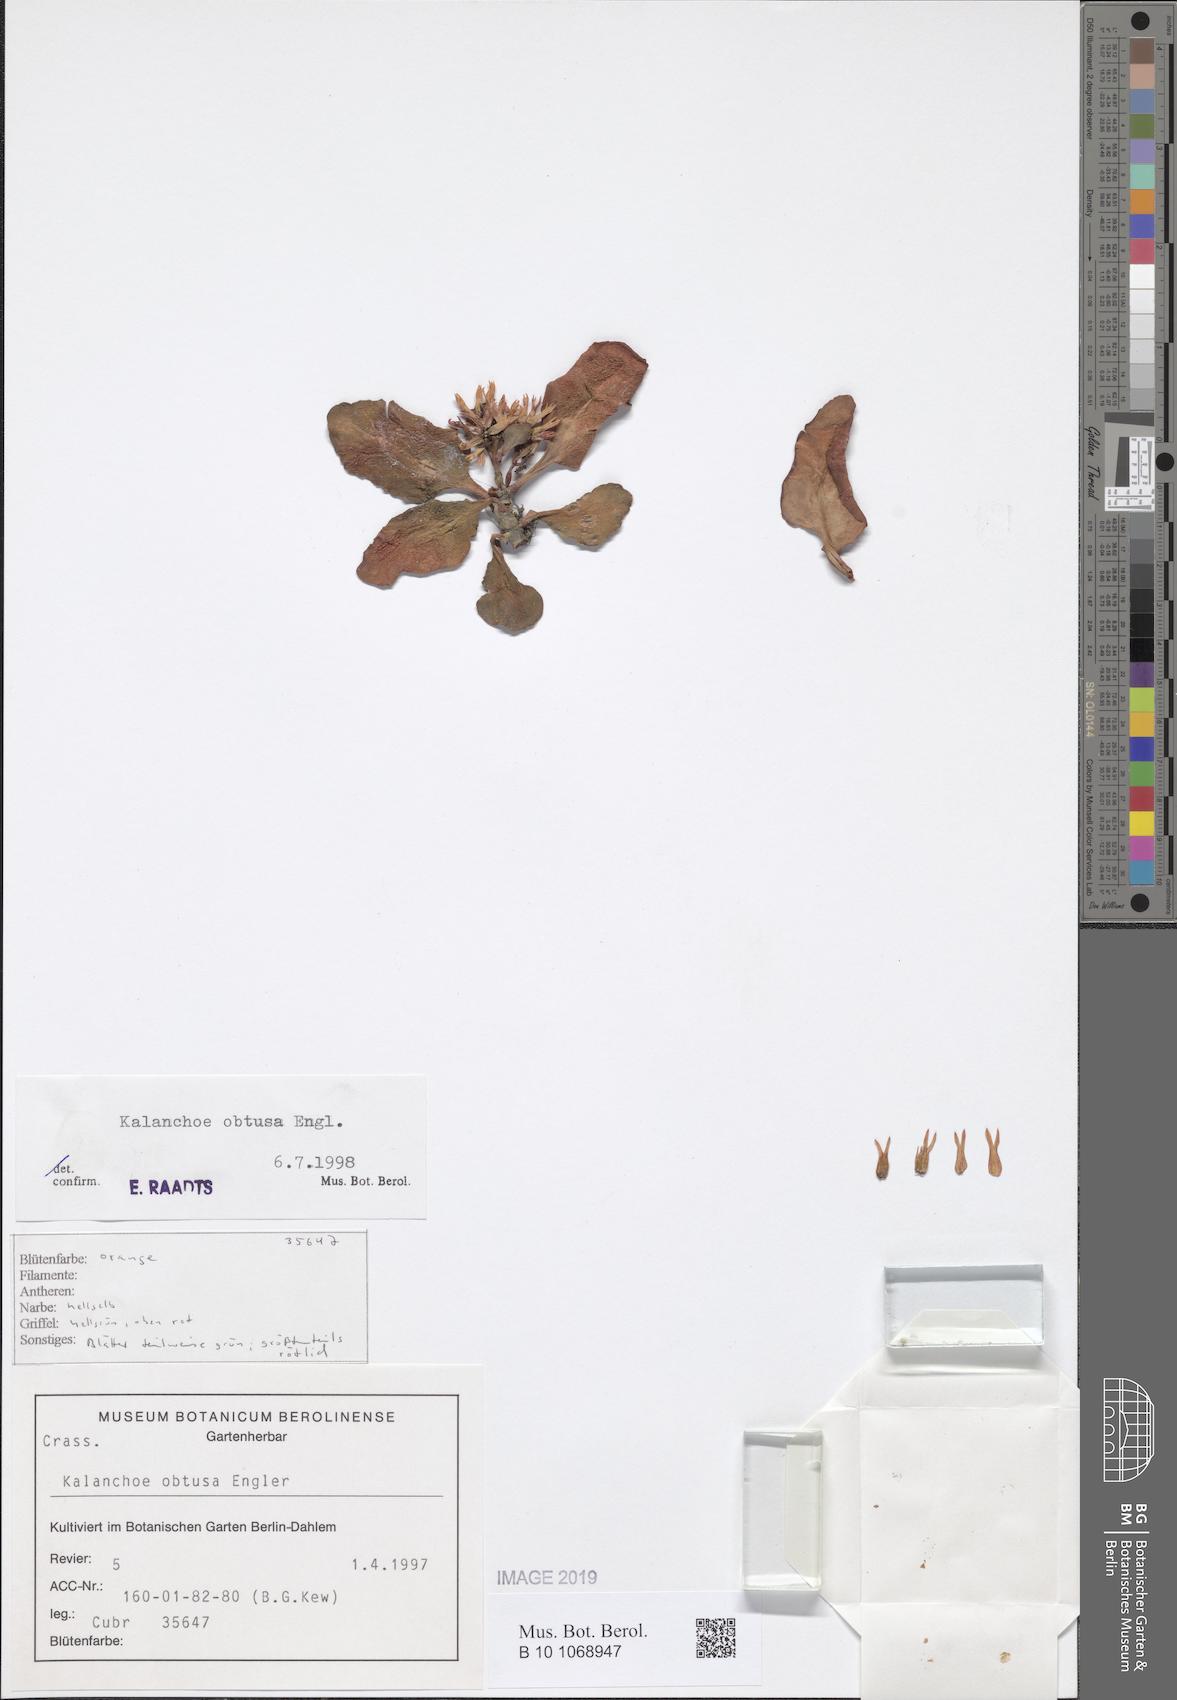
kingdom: Plantae
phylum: Tracheophyta
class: Magnoliopsida
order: Saxifragales
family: Crassulaceae
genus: Kalanchoe
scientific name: Kalanchoe obtusa
